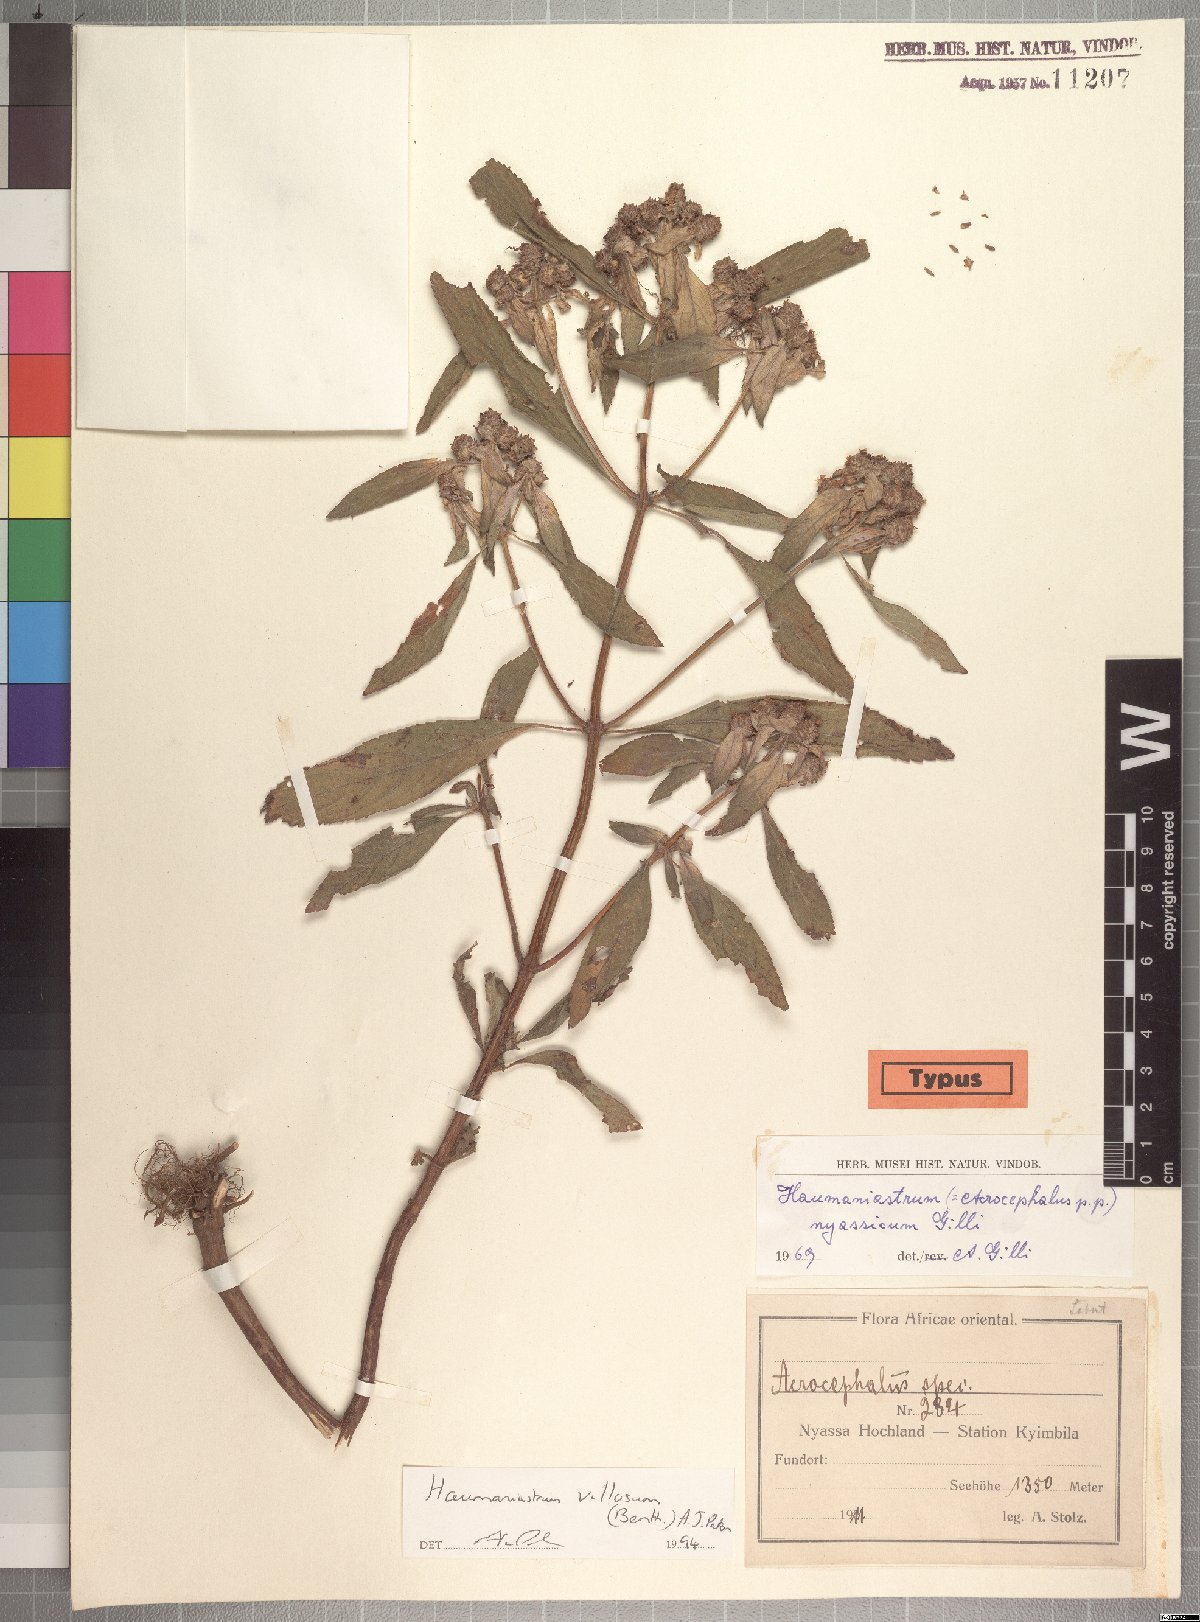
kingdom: Plantae
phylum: Tracheophyta
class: Magnoliopsida
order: Lamiales
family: Lamiaceae
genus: Haumaniastrum
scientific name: Haumaniastrum villosum
